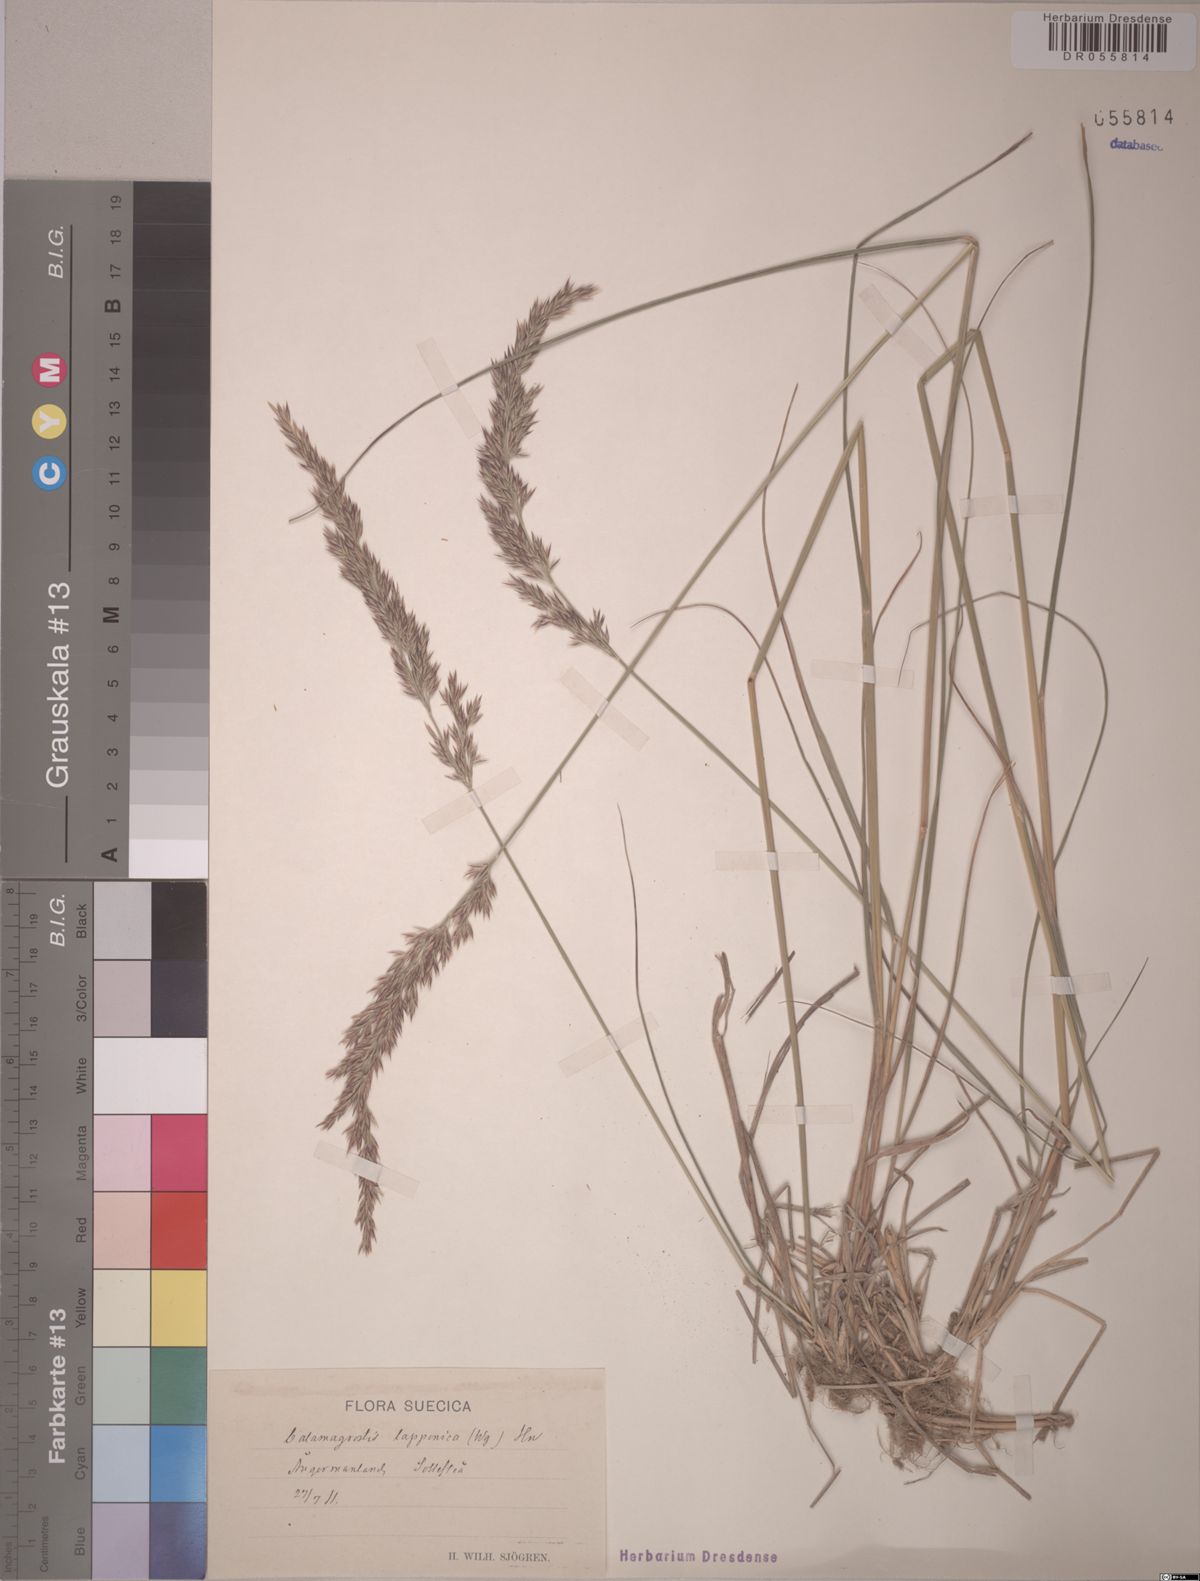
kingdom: Plantae
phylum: Tracheophyta
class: Liliopsida
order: Poales
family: Poaceae
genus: Calamagrostis
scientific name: Calamagrostis lapponica
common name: Lapland reedgrass
